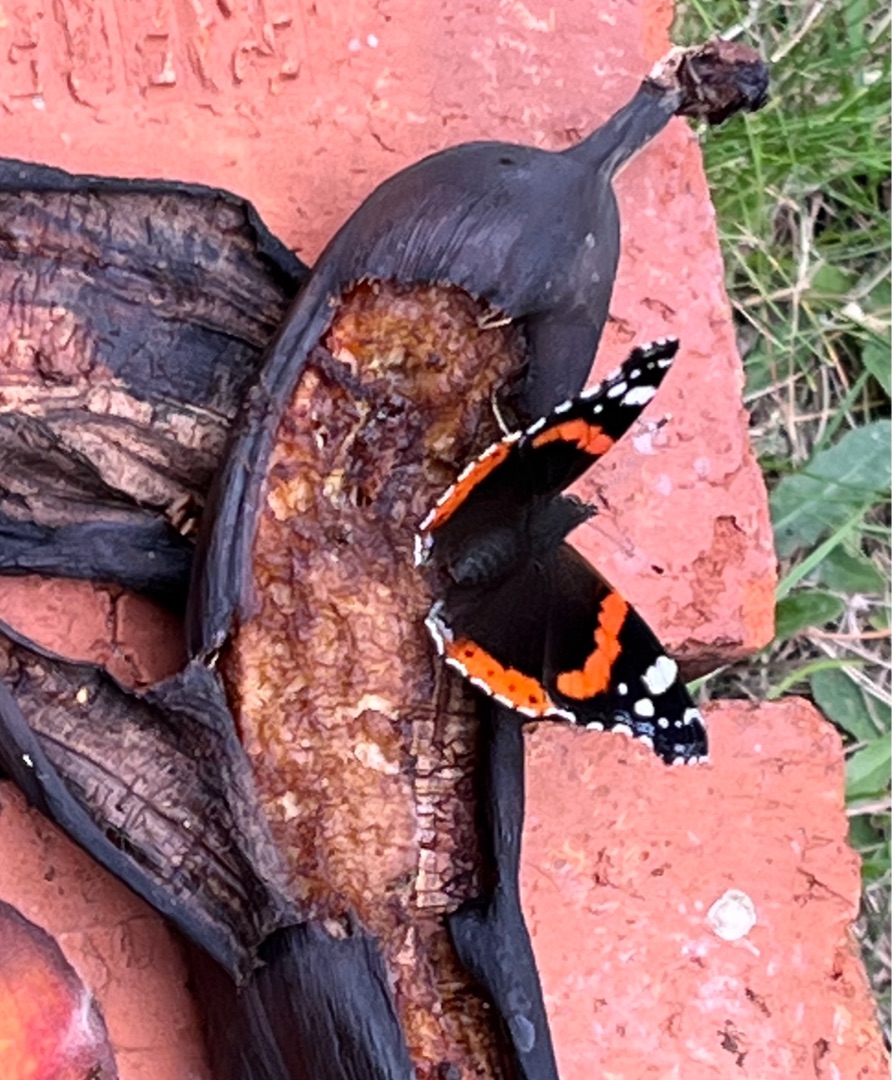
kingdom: Animalia
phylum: Arthropoda
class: Insecta
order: Lepidoptera
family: Nymphalidae
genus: Vanessa
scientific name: Vanessa atalanta
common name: Admiral
